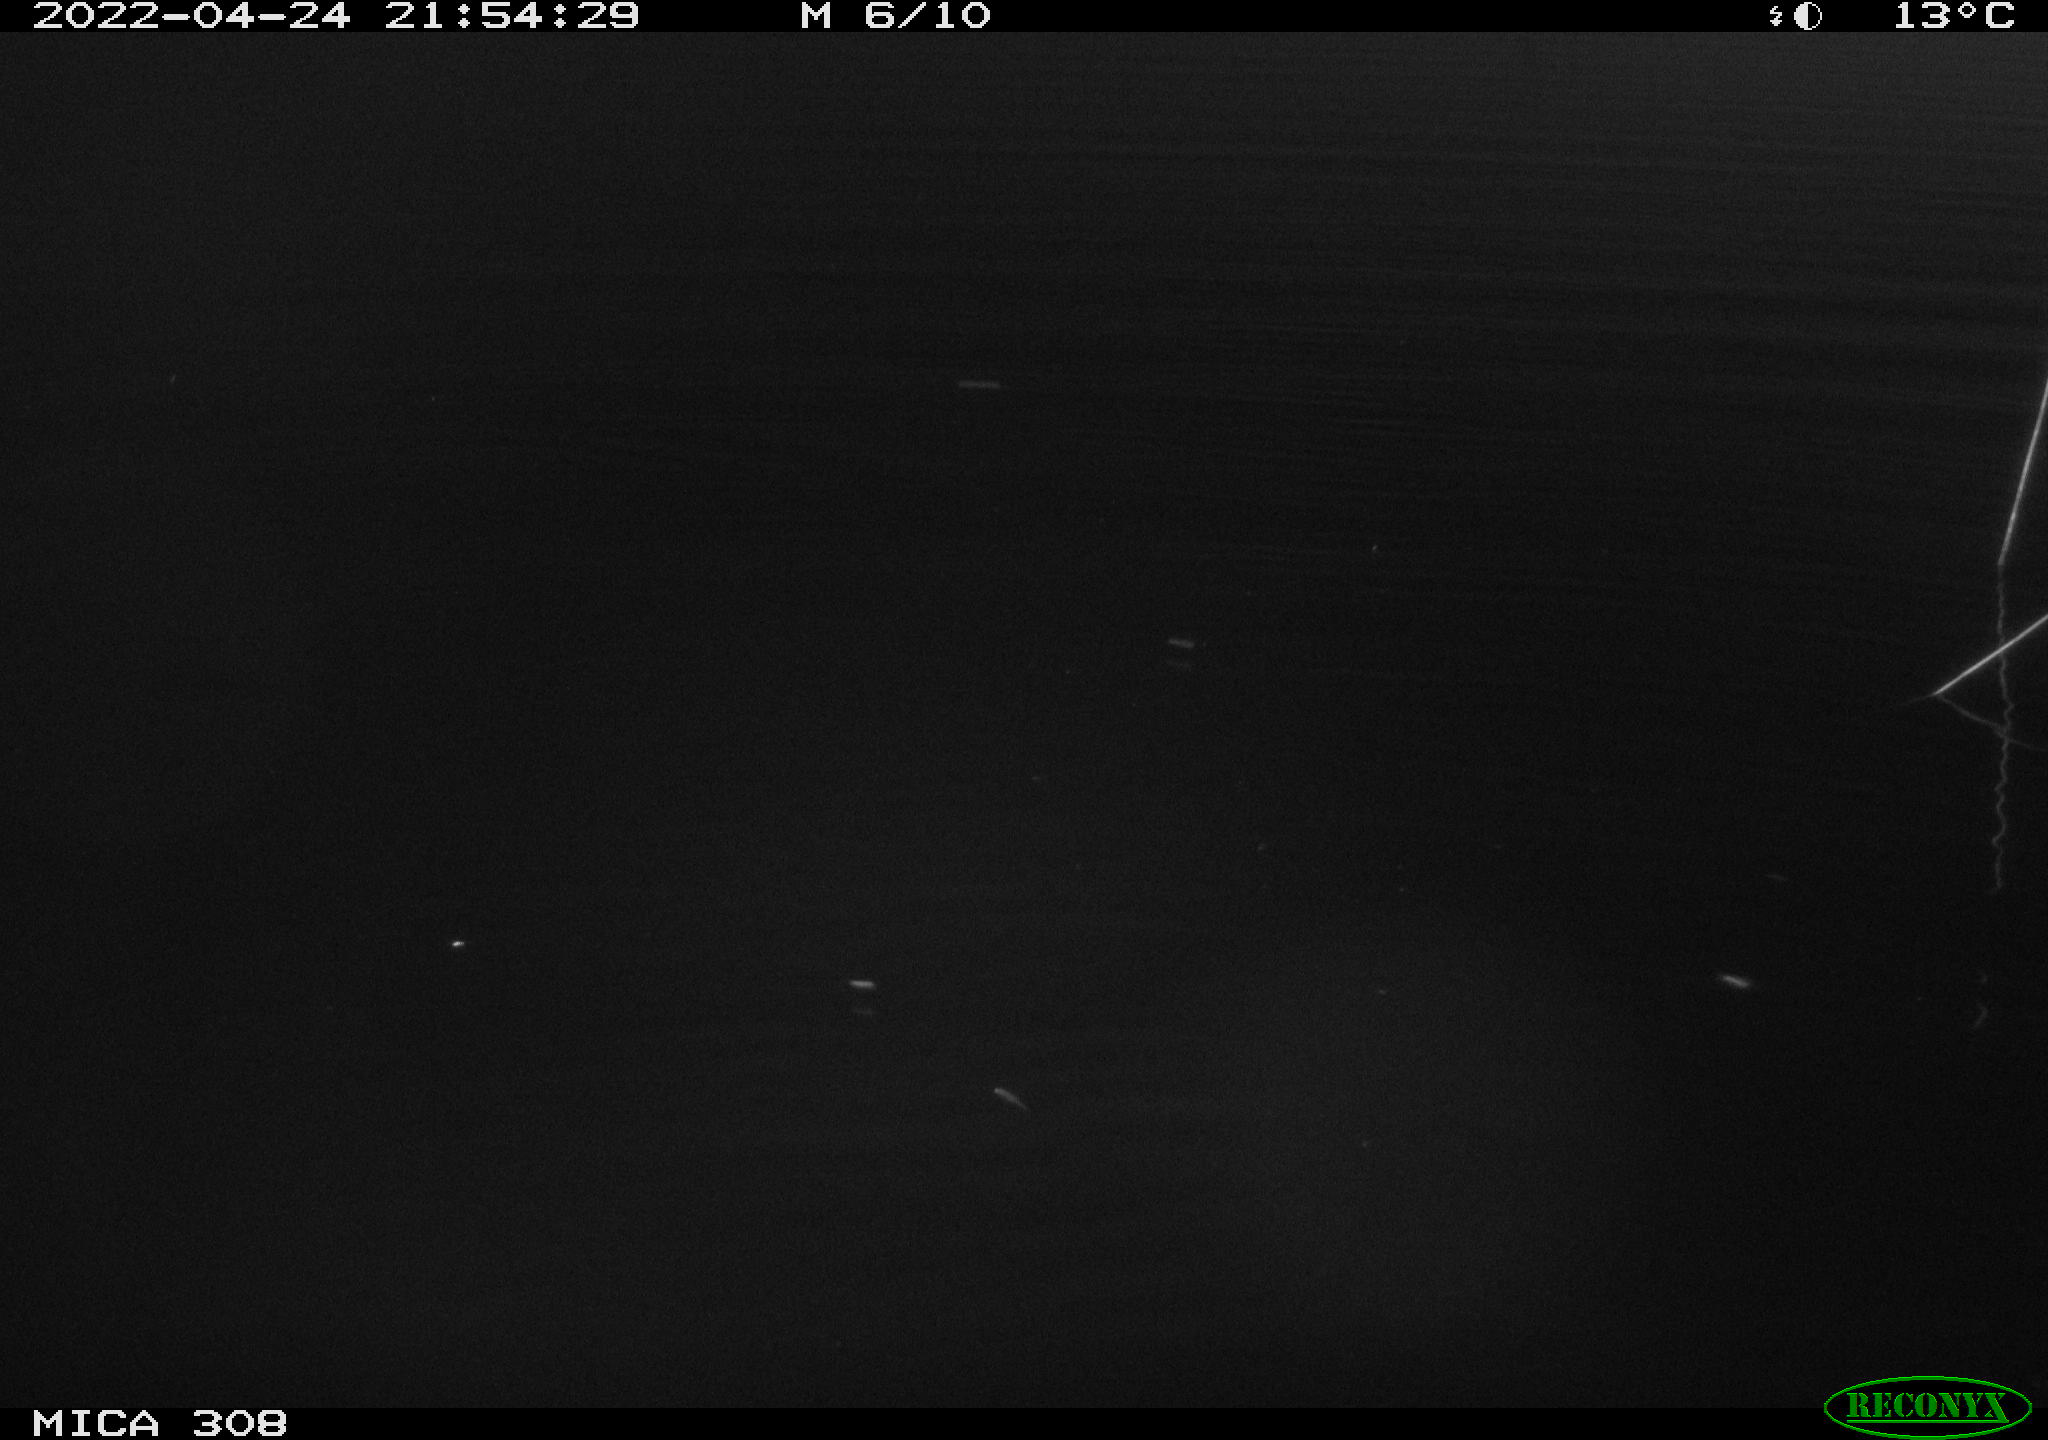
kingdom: Animalia
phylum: Chordata
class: Aves
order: Anseriformes
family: Anatidae
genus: Anas
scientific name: Anas platyrhynchos
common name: Mallard
